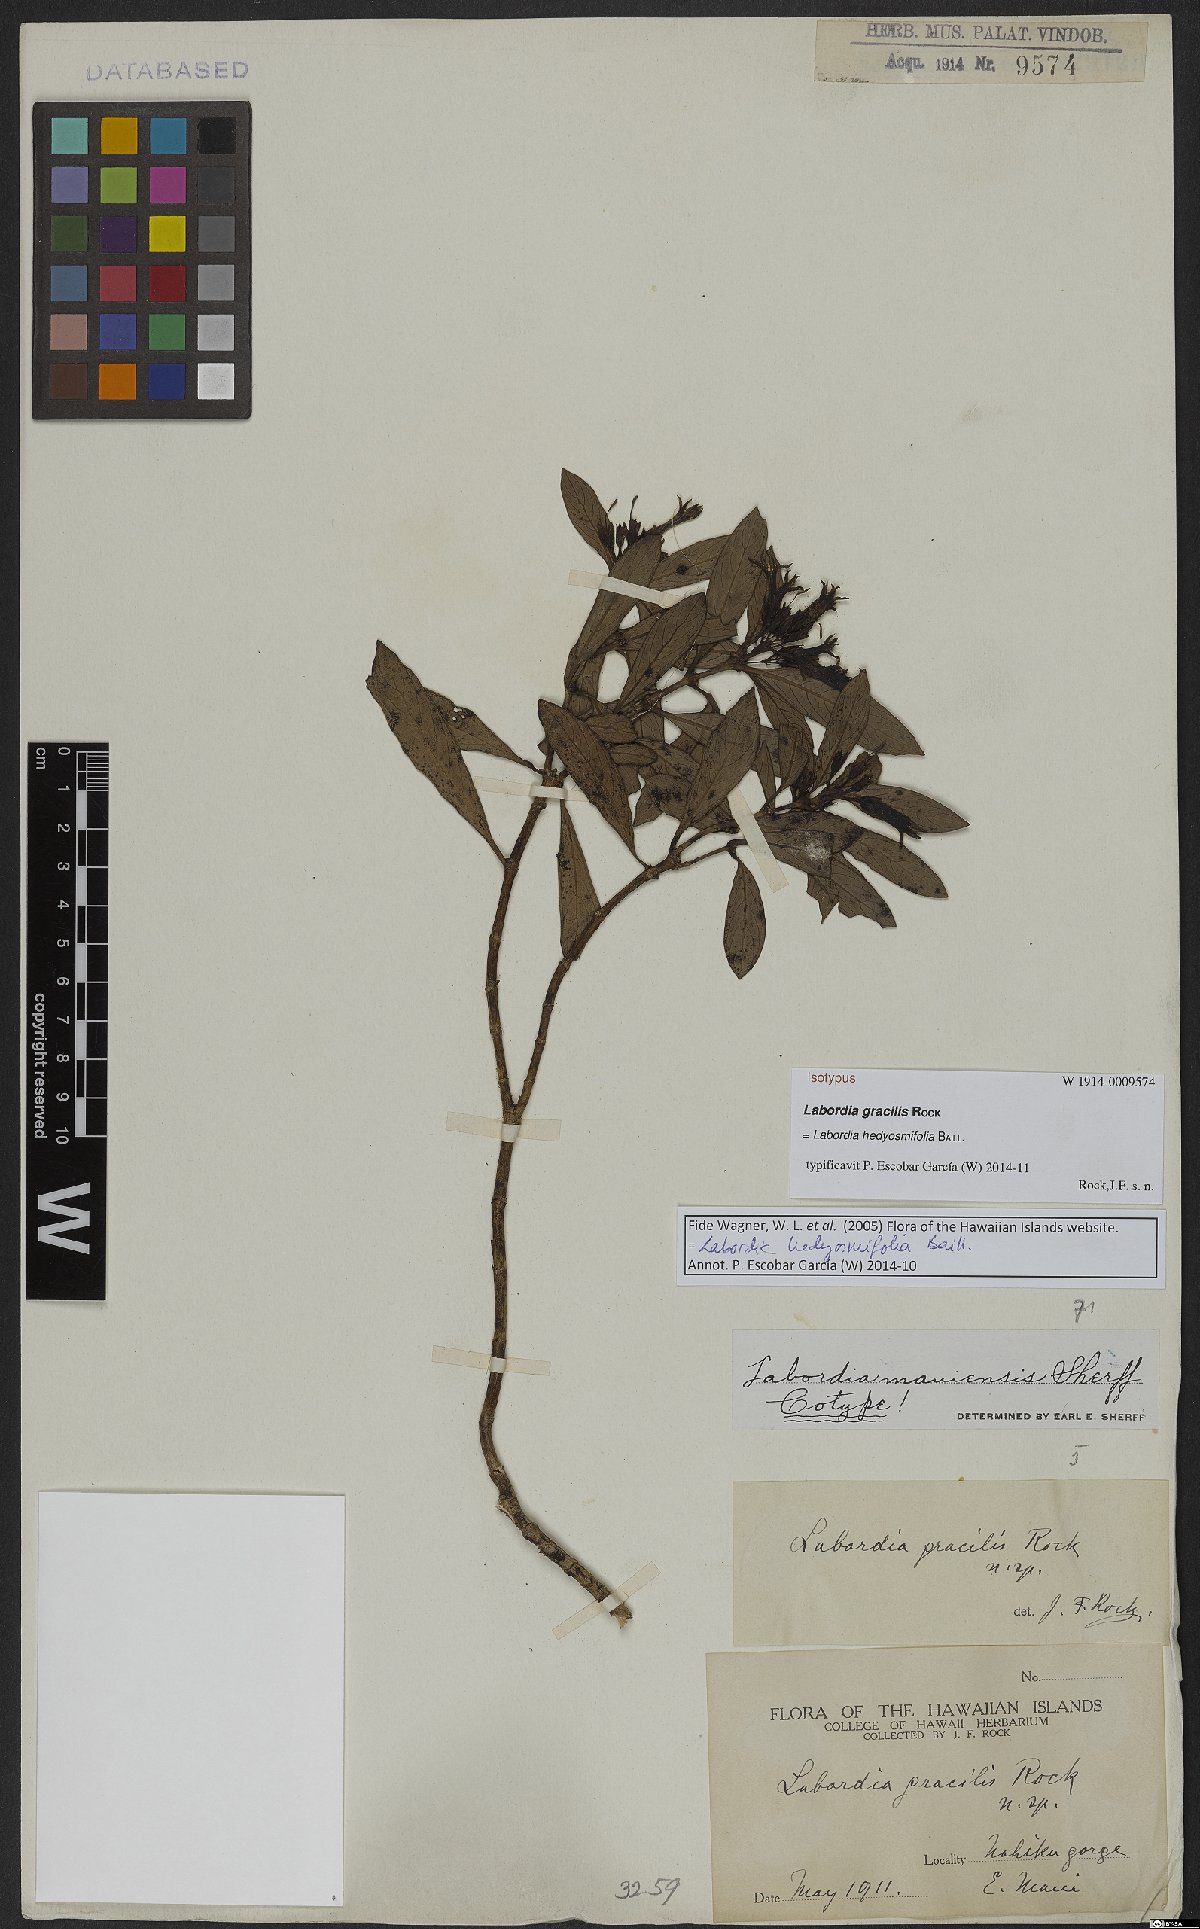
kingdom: Plantae
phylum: Tracheophyta
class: Magnoliopsida
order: Gentianales
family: Loganiaceae
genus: Geniostoma
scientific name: Geniostoma hedyosmifolium
